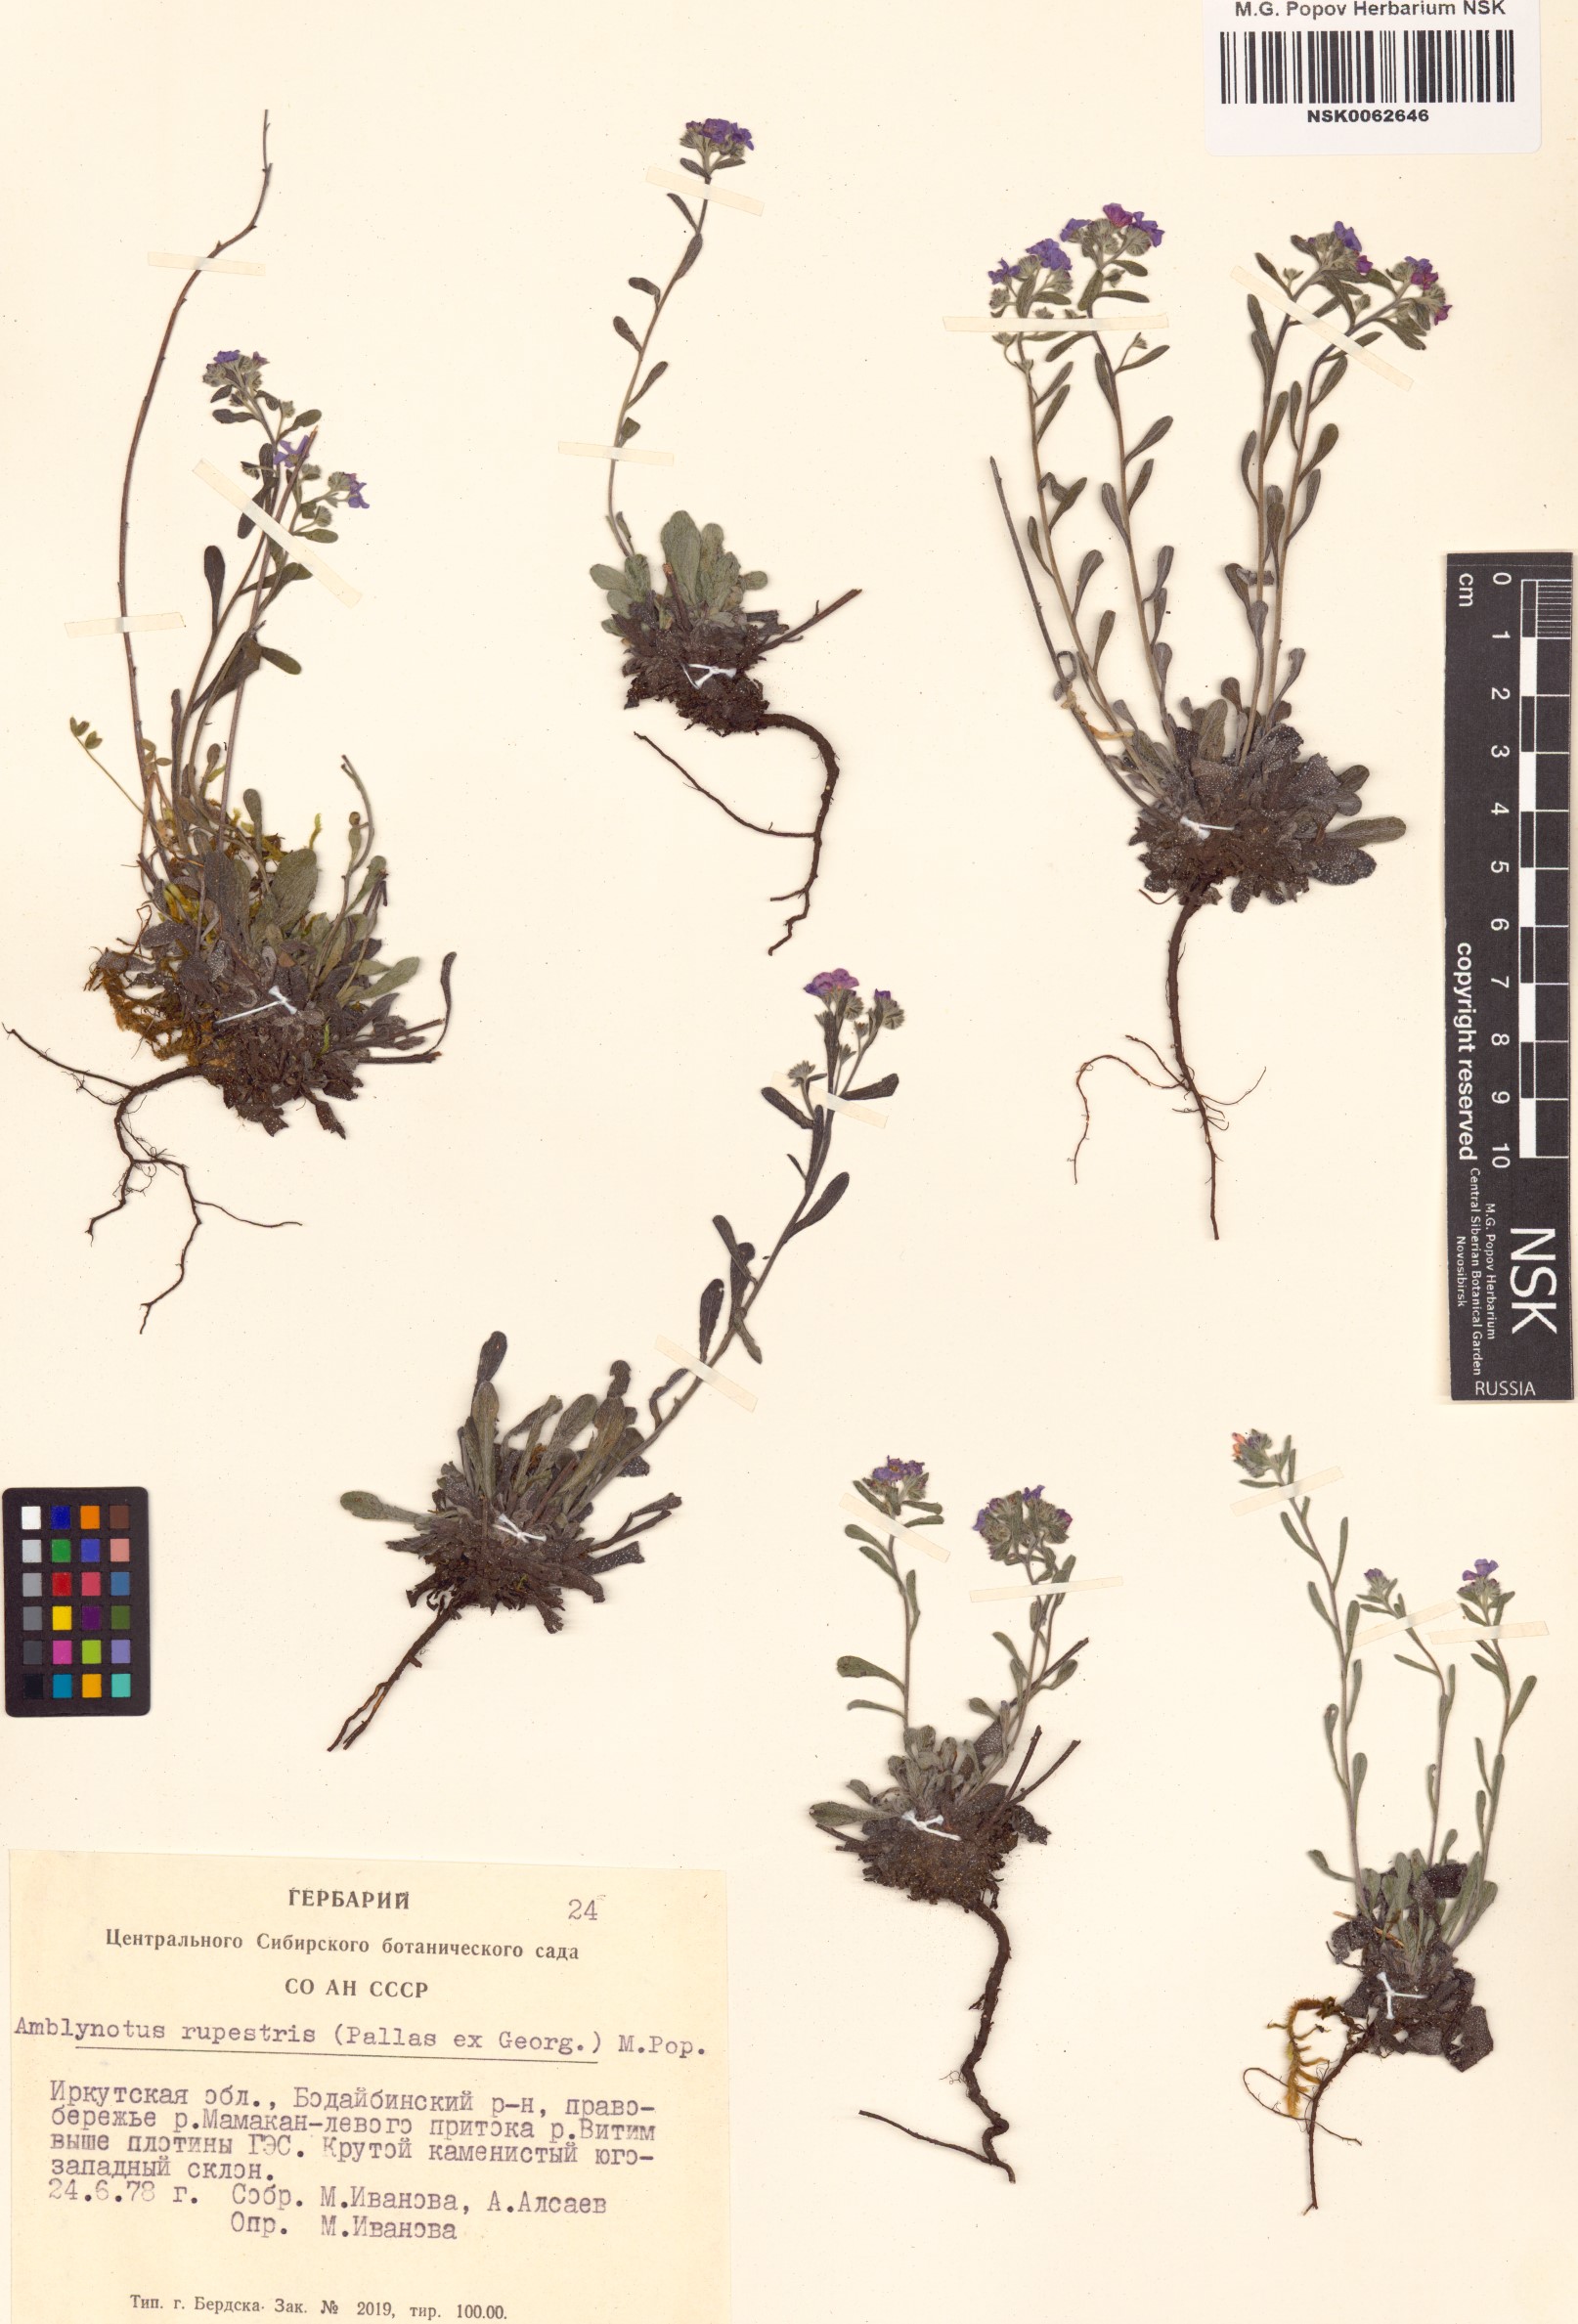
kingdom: Plantae
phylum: Tracheophyta
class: Magnoliopsida
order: Boraginales
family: Boraginaceae
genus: Eritrichium
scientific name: Eritrichium rupestre
